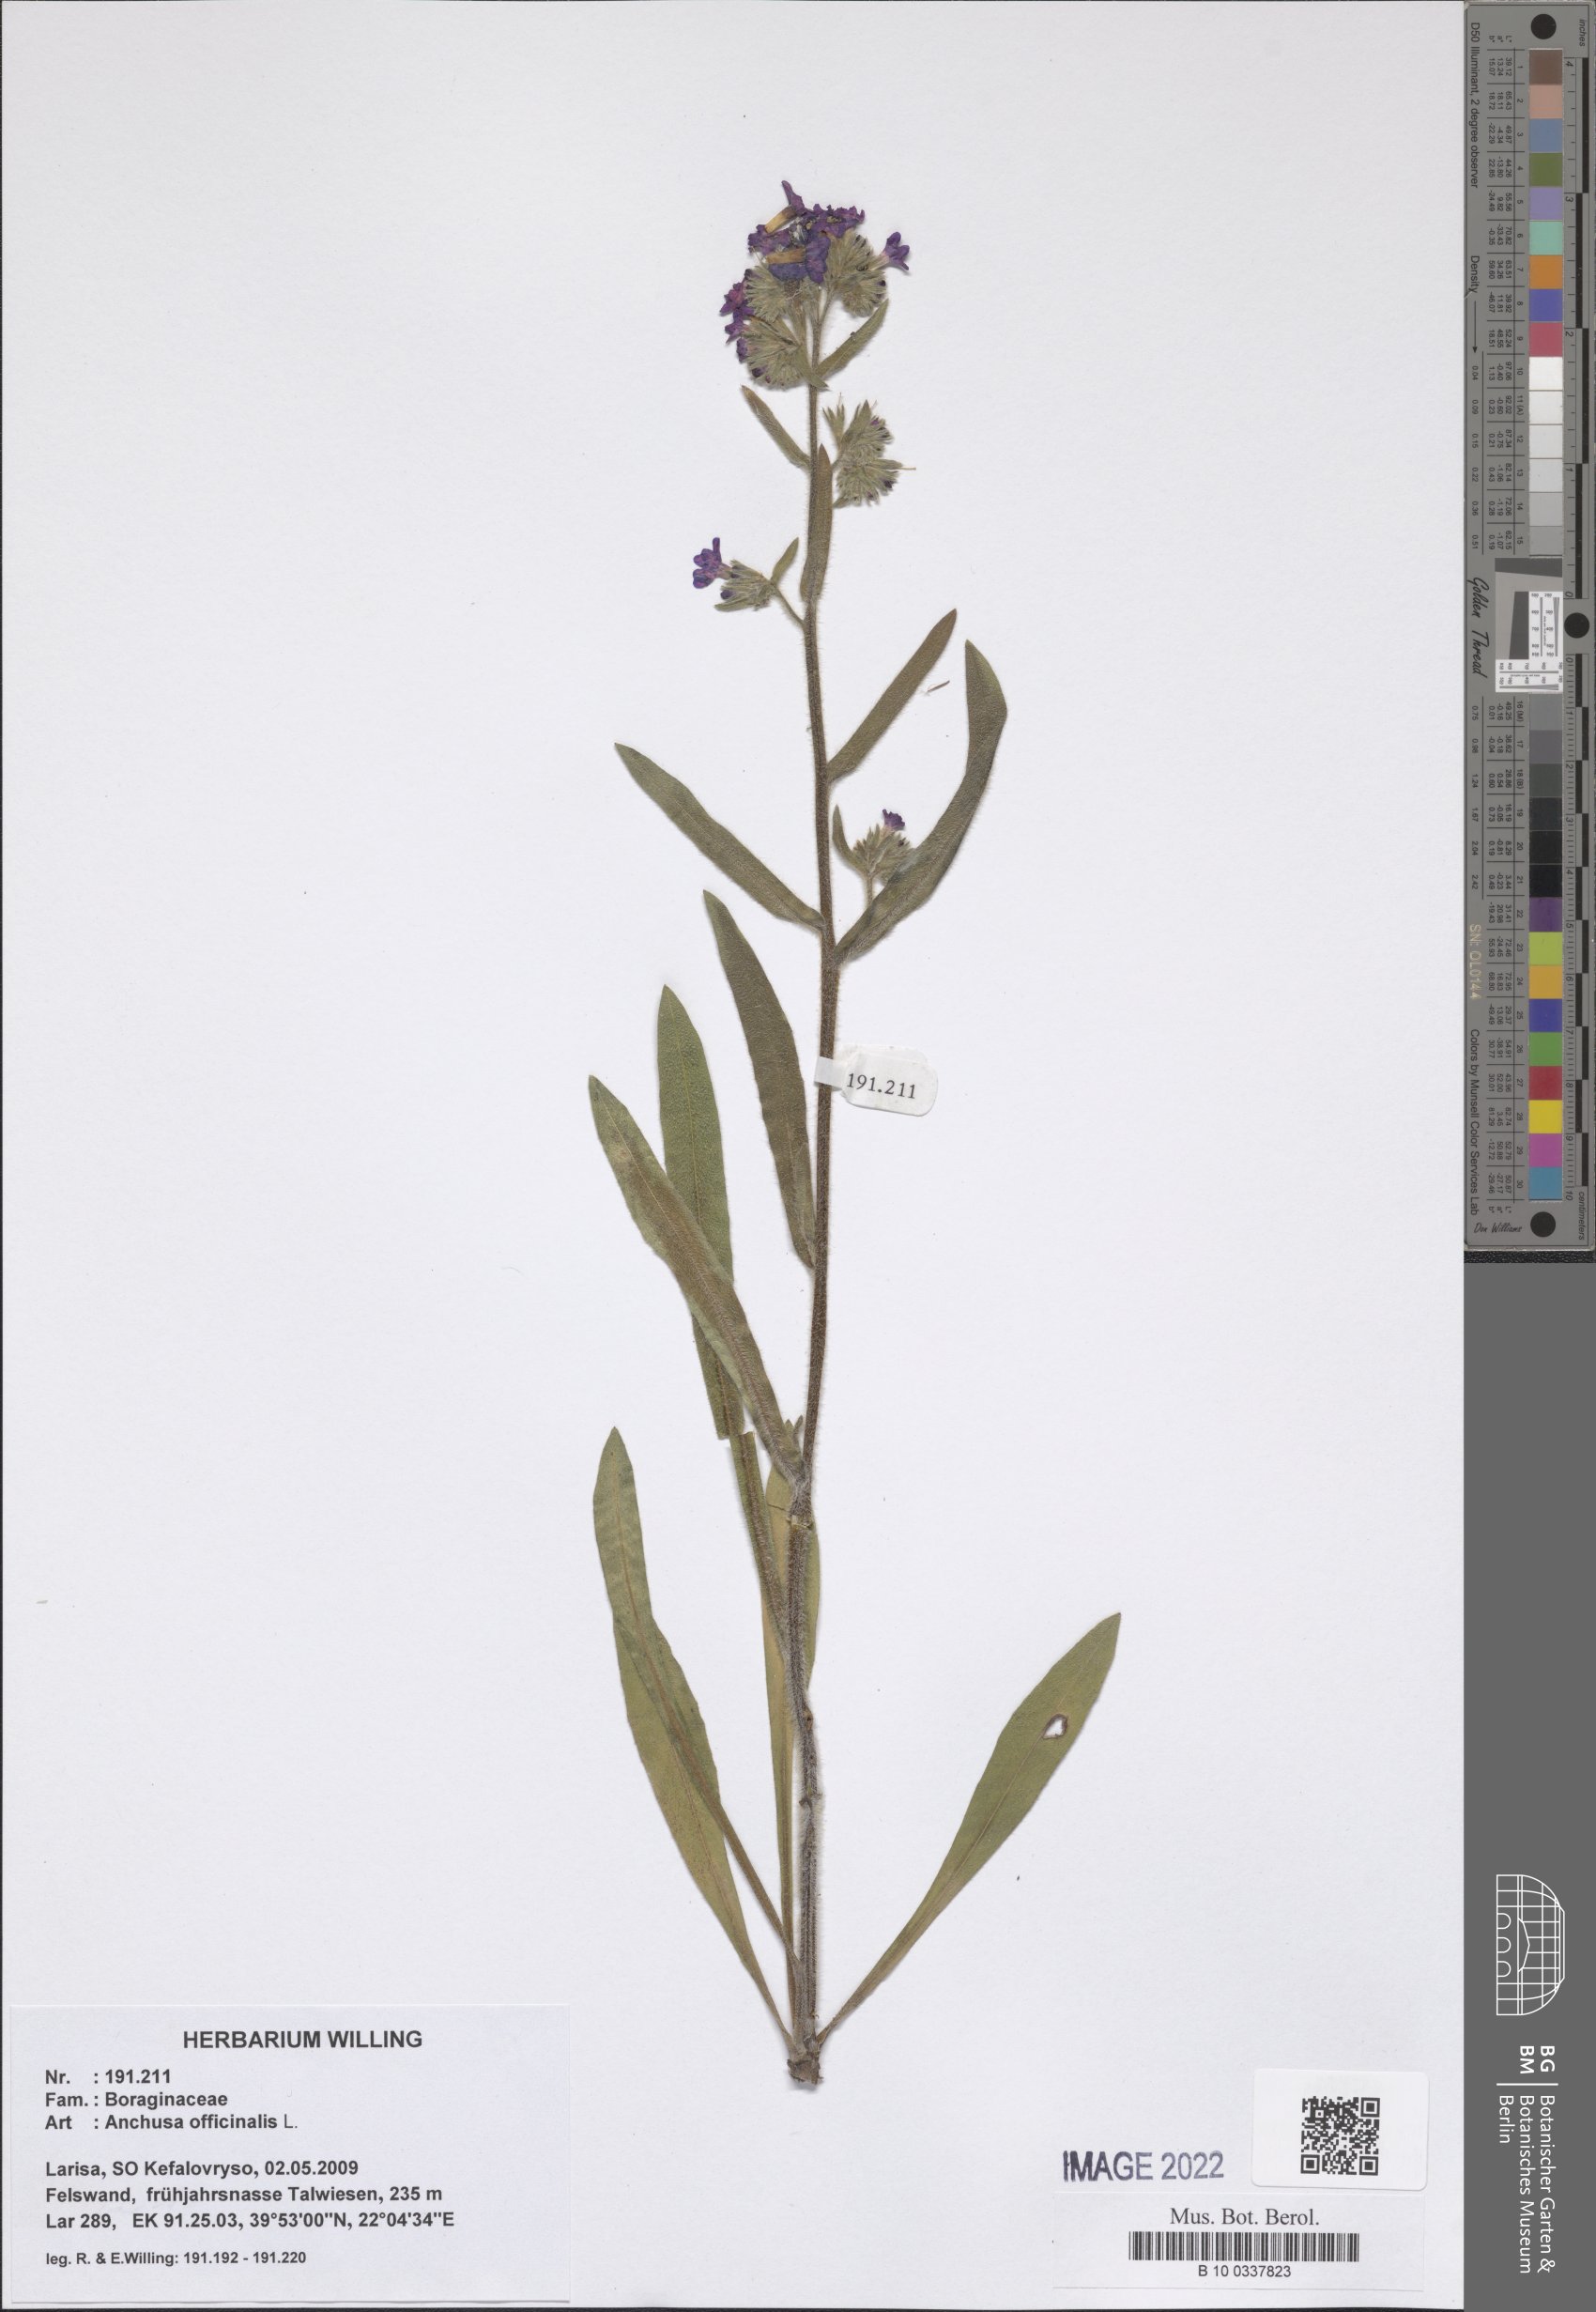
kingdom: Plantae
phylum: Tracheophyta
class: Magnoliopsida
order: Boraginales
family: Boraginaceae
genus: Anchusa
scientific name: Anchusa officinalis
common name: Alkanet
